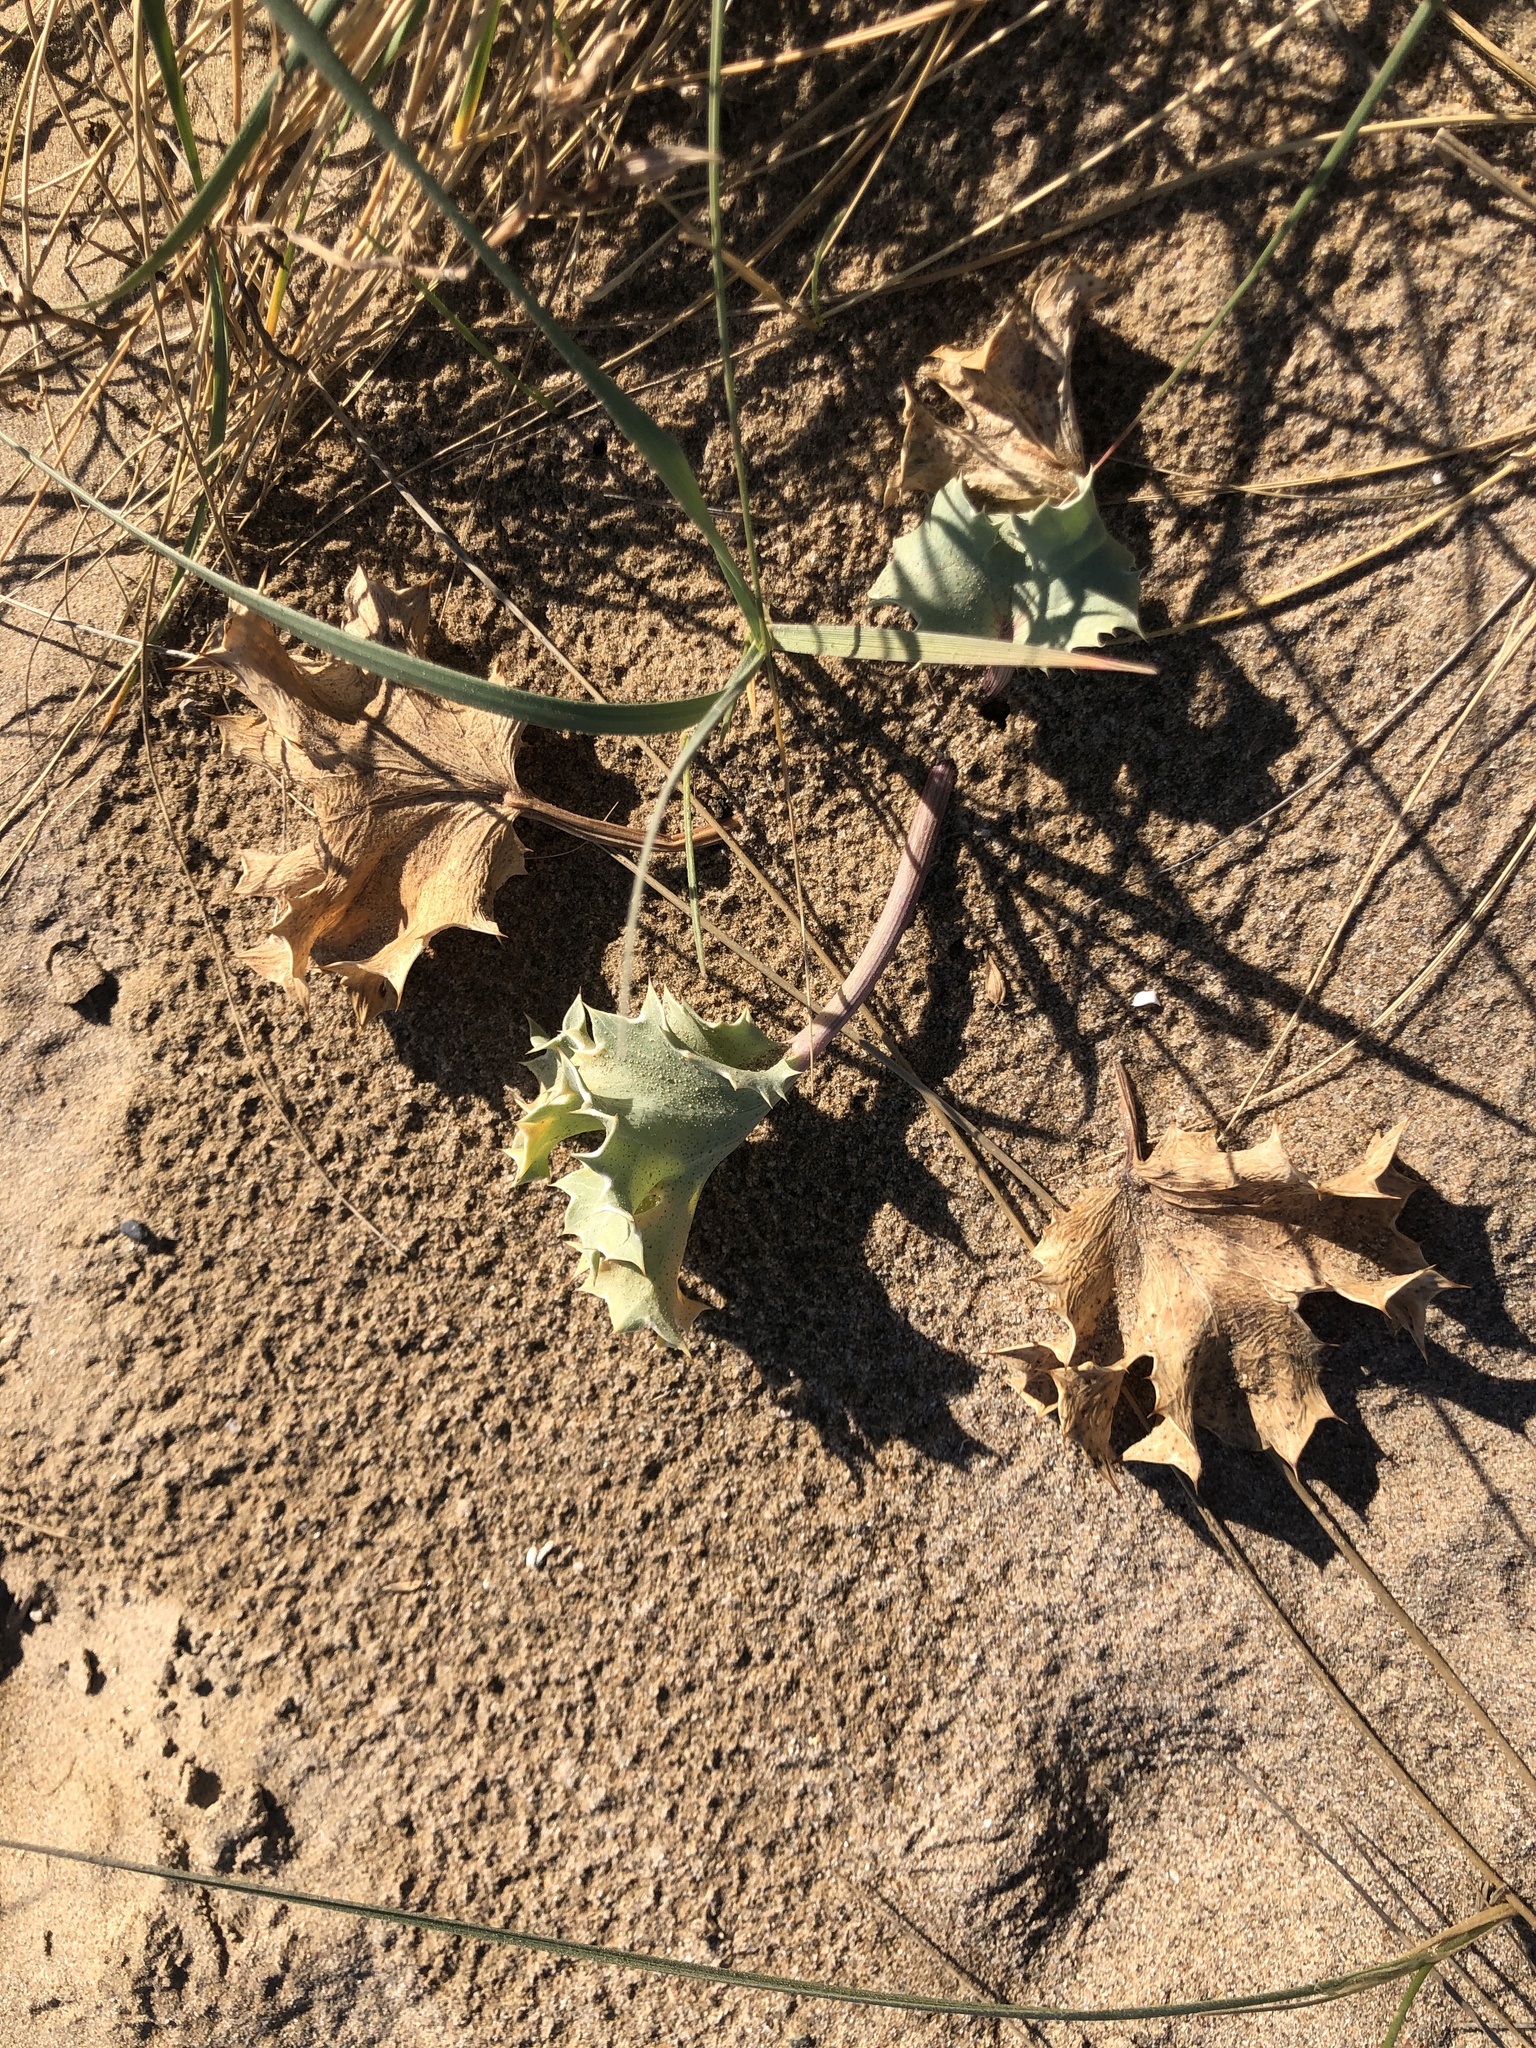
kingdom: Plantae
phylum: Tracheophyta
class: Magnoliopsida
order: Apiales
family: Apiaceae
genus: Eryngium
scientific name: Eryngium maritimum
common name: Sea-holly
